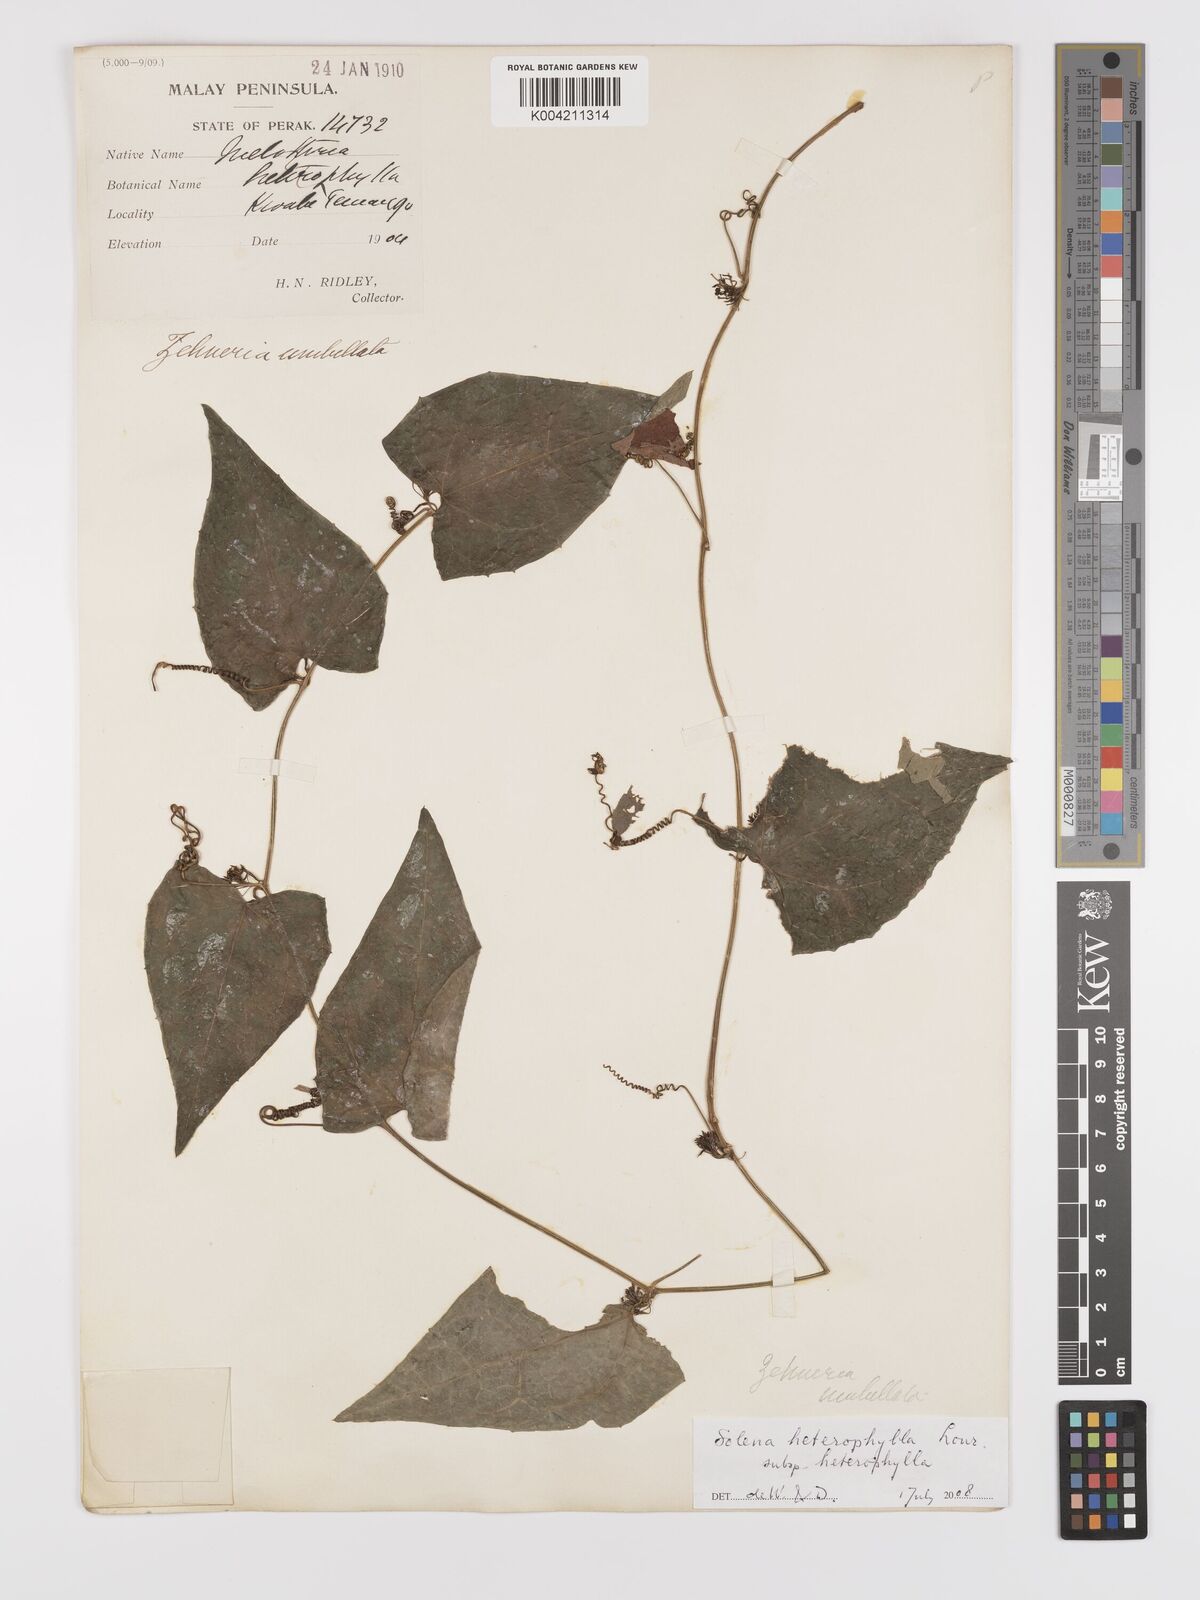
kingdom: Plantae
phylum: Tracheophyta
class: Magnoliopsida
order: Cucurbitales
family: Cucurbitaceae
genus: Solena
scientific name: Solena amplexicaulis
